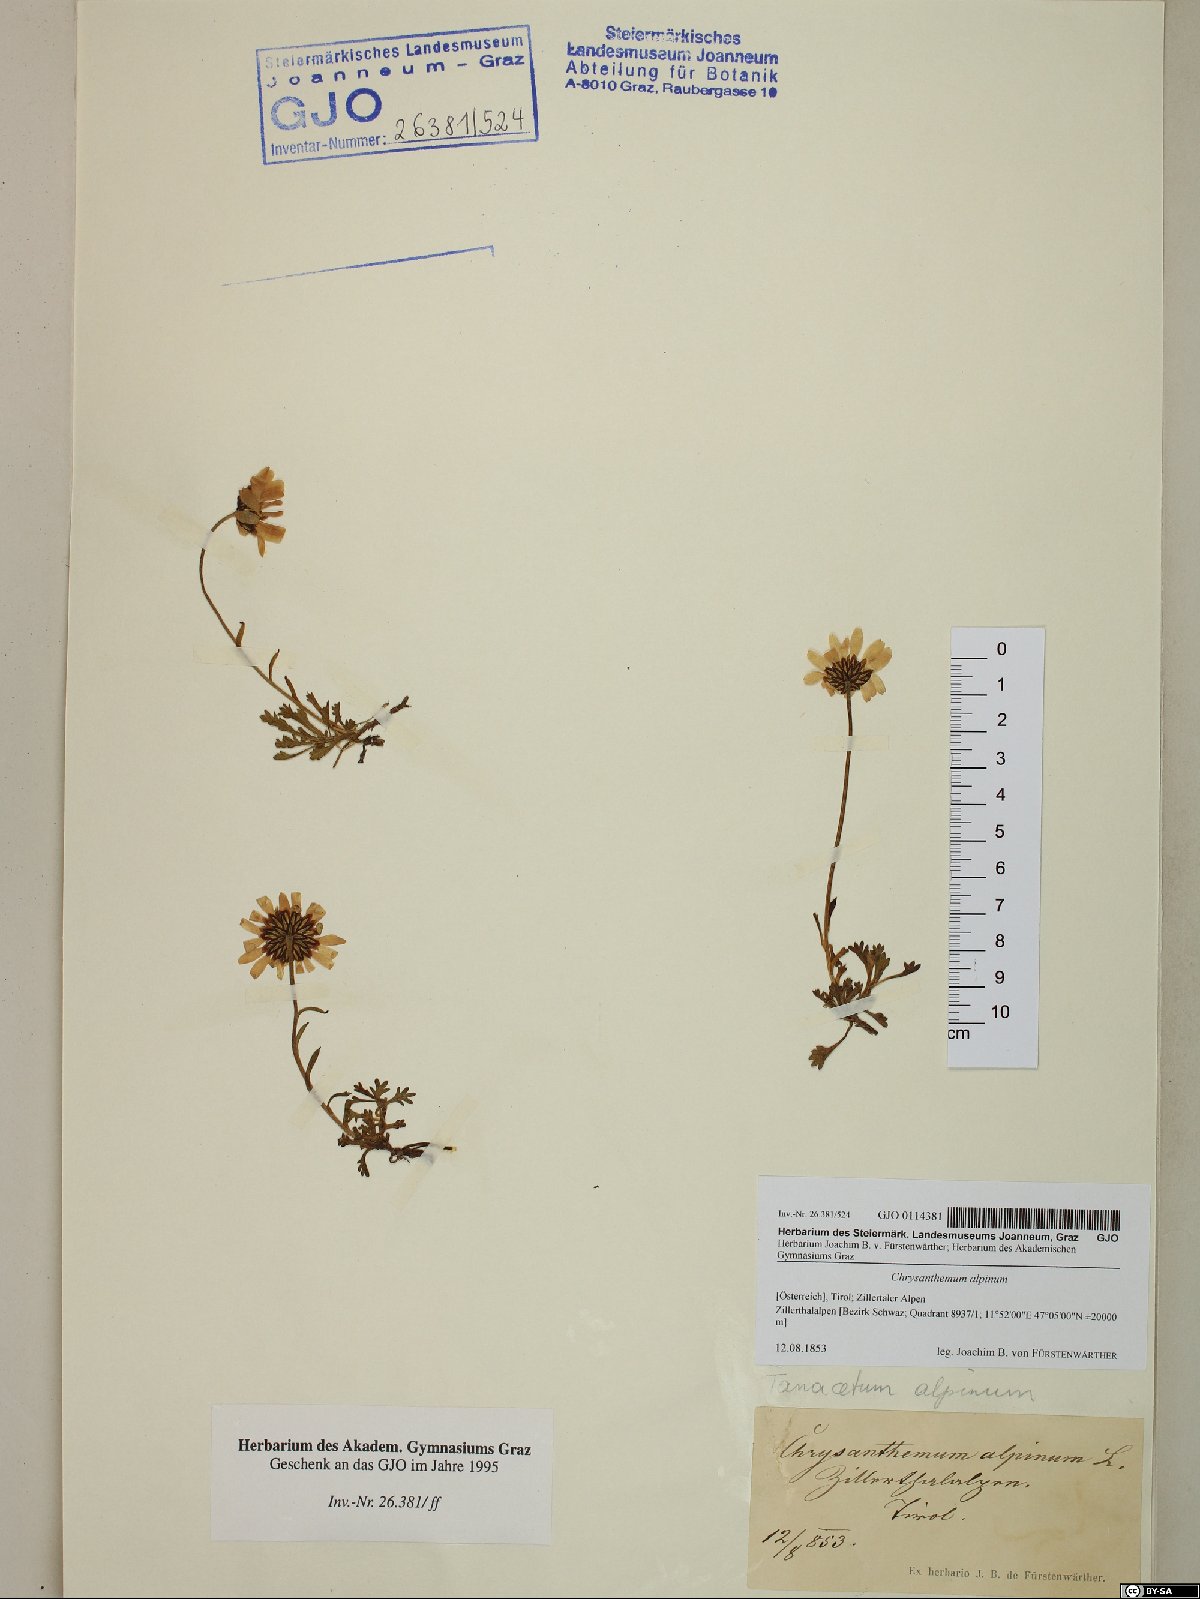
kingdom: Plantae
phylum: Tracheophyta
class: Magnoliopsida
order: Asterales
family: Asteraceae
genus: Leucanthemopsis
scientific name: Leucanthemopsis alpina
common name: Alpine moon daisy
